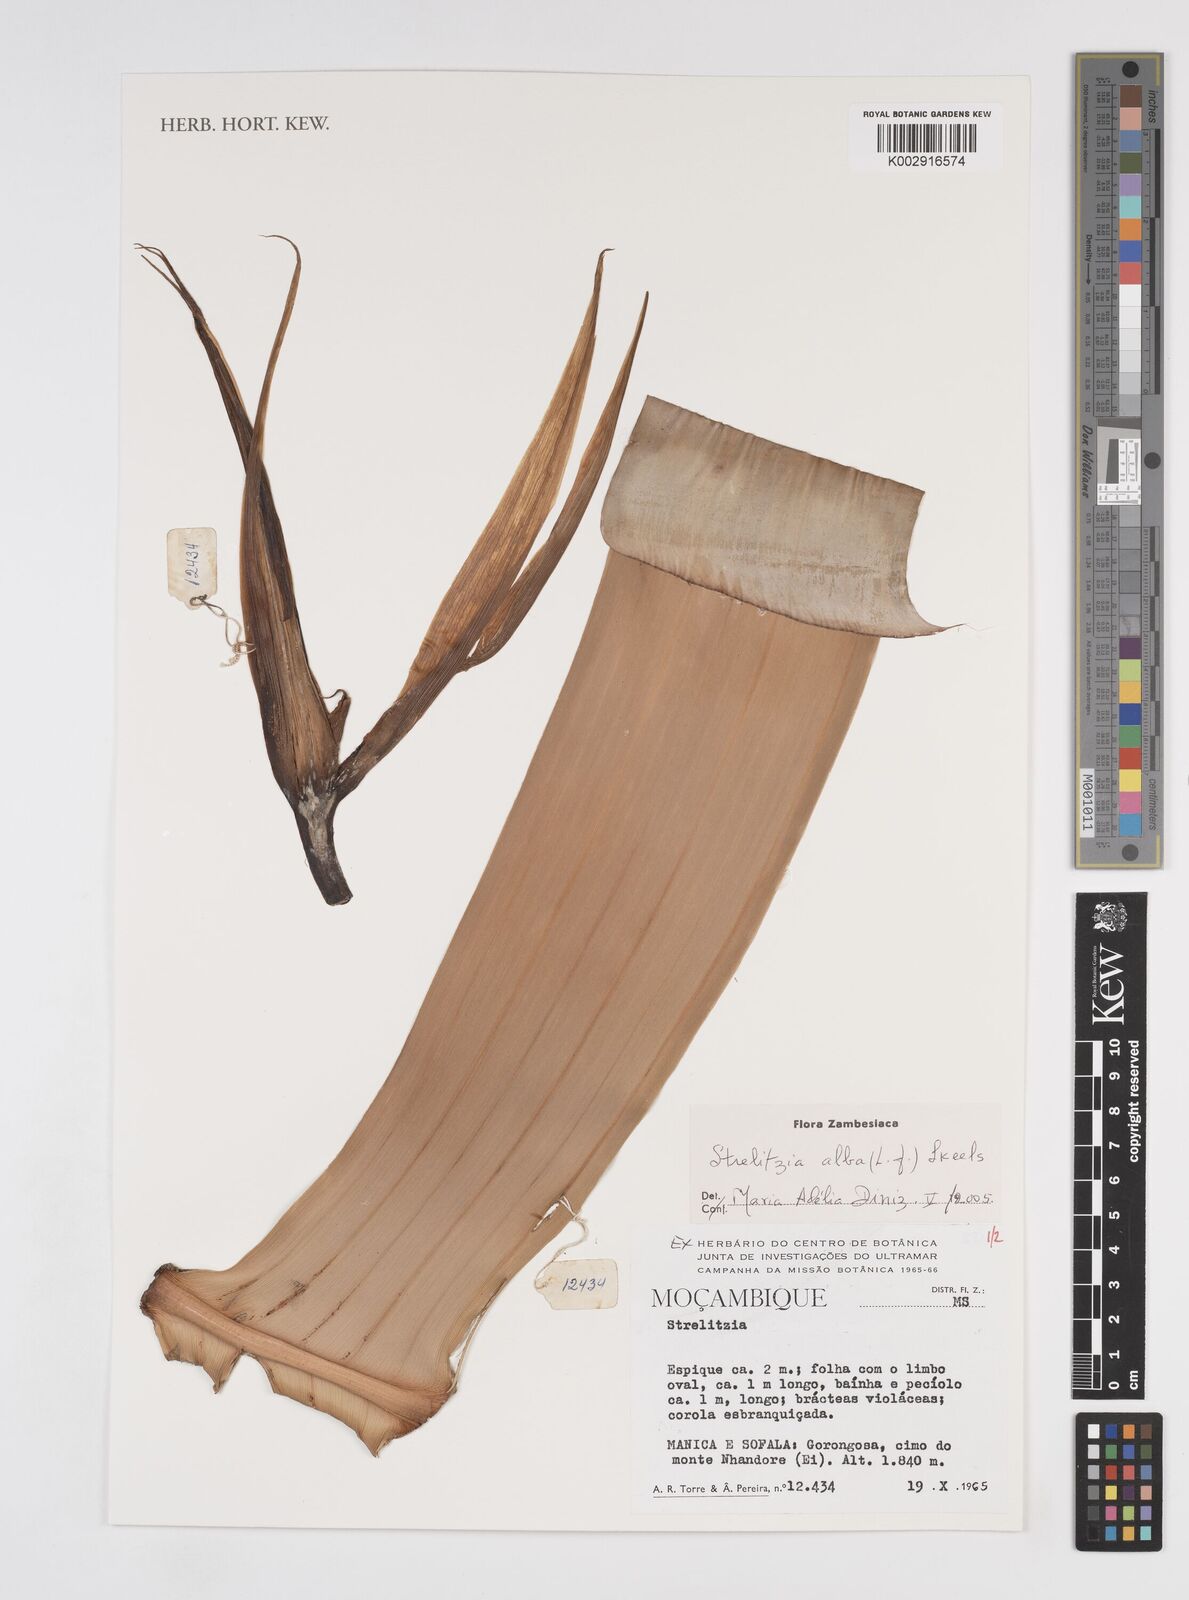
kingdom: Plantae
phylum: Tracheophyta
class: Liliopsida
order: Zingiberales
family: Strelitziaceae
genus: Strelitzia
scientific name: Strelitzia alba
